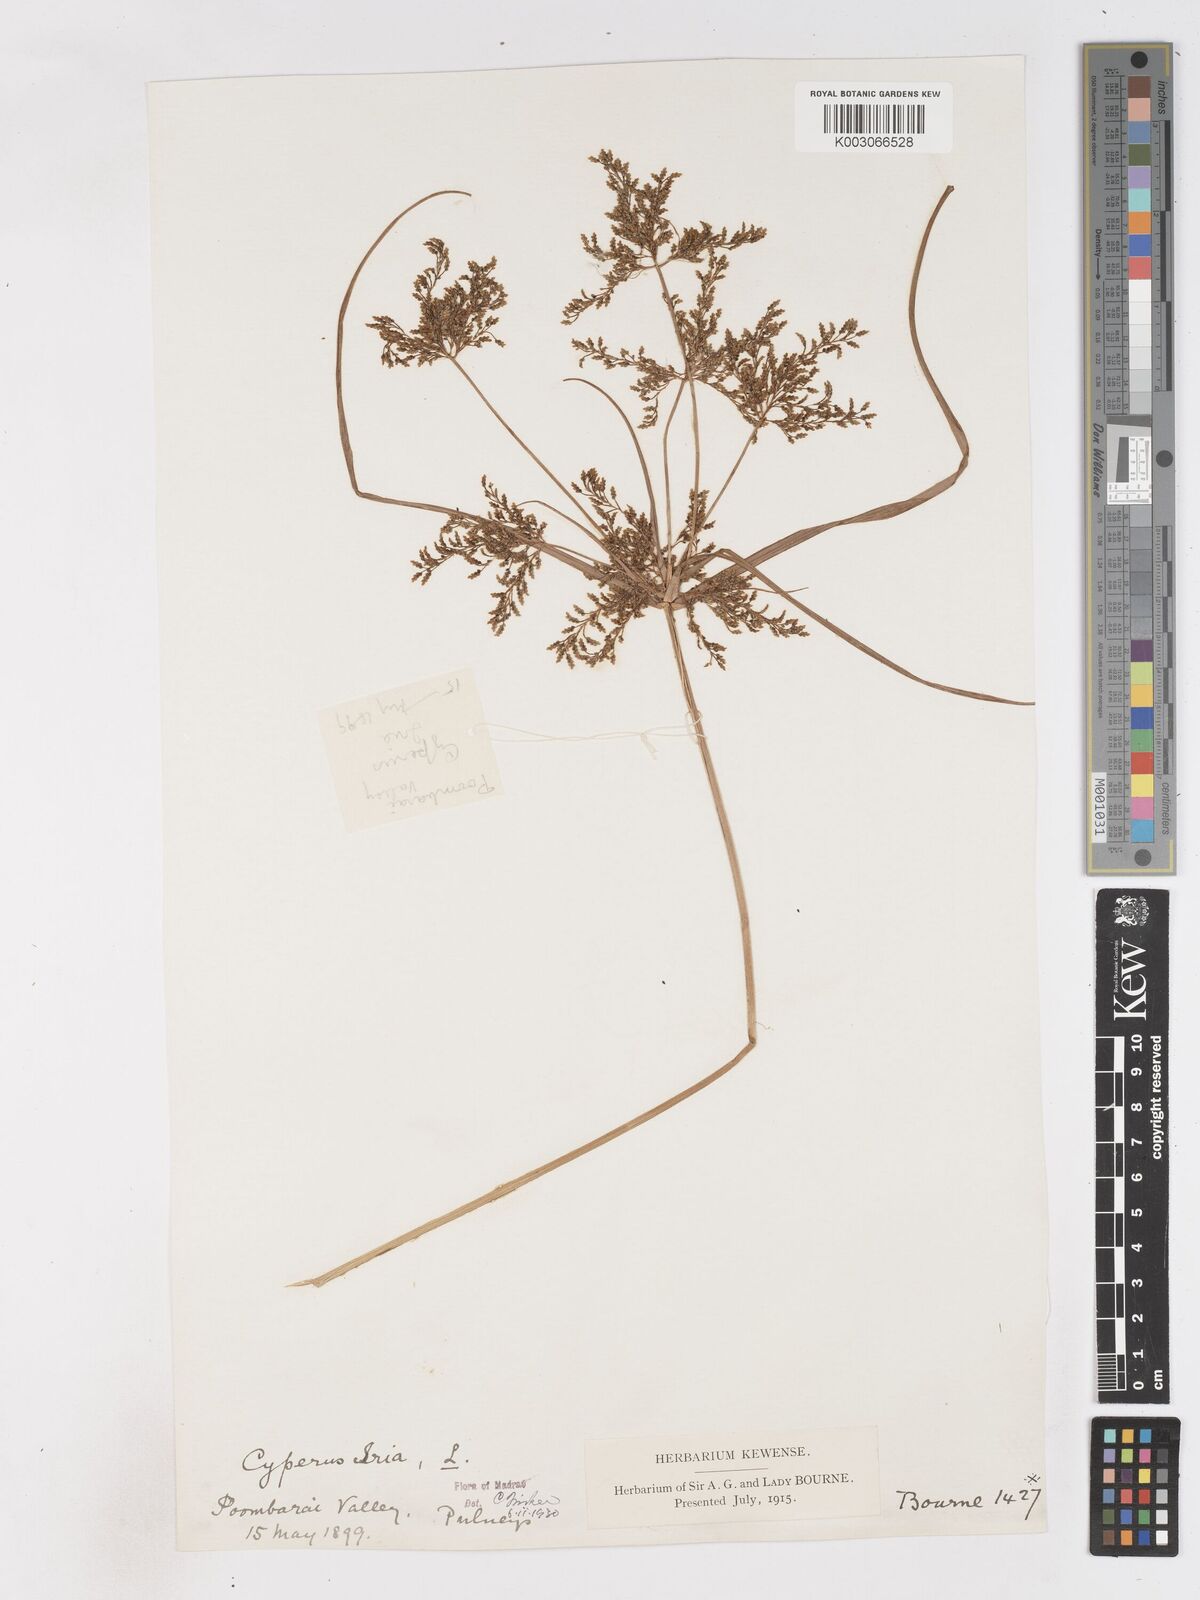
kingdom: Plantae
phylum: Tracheophyta
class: Liliopsida
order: Poales
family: Cyperaceae
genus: Cyperus
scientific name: Cyperus iria
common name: Ricefield flatsedge
